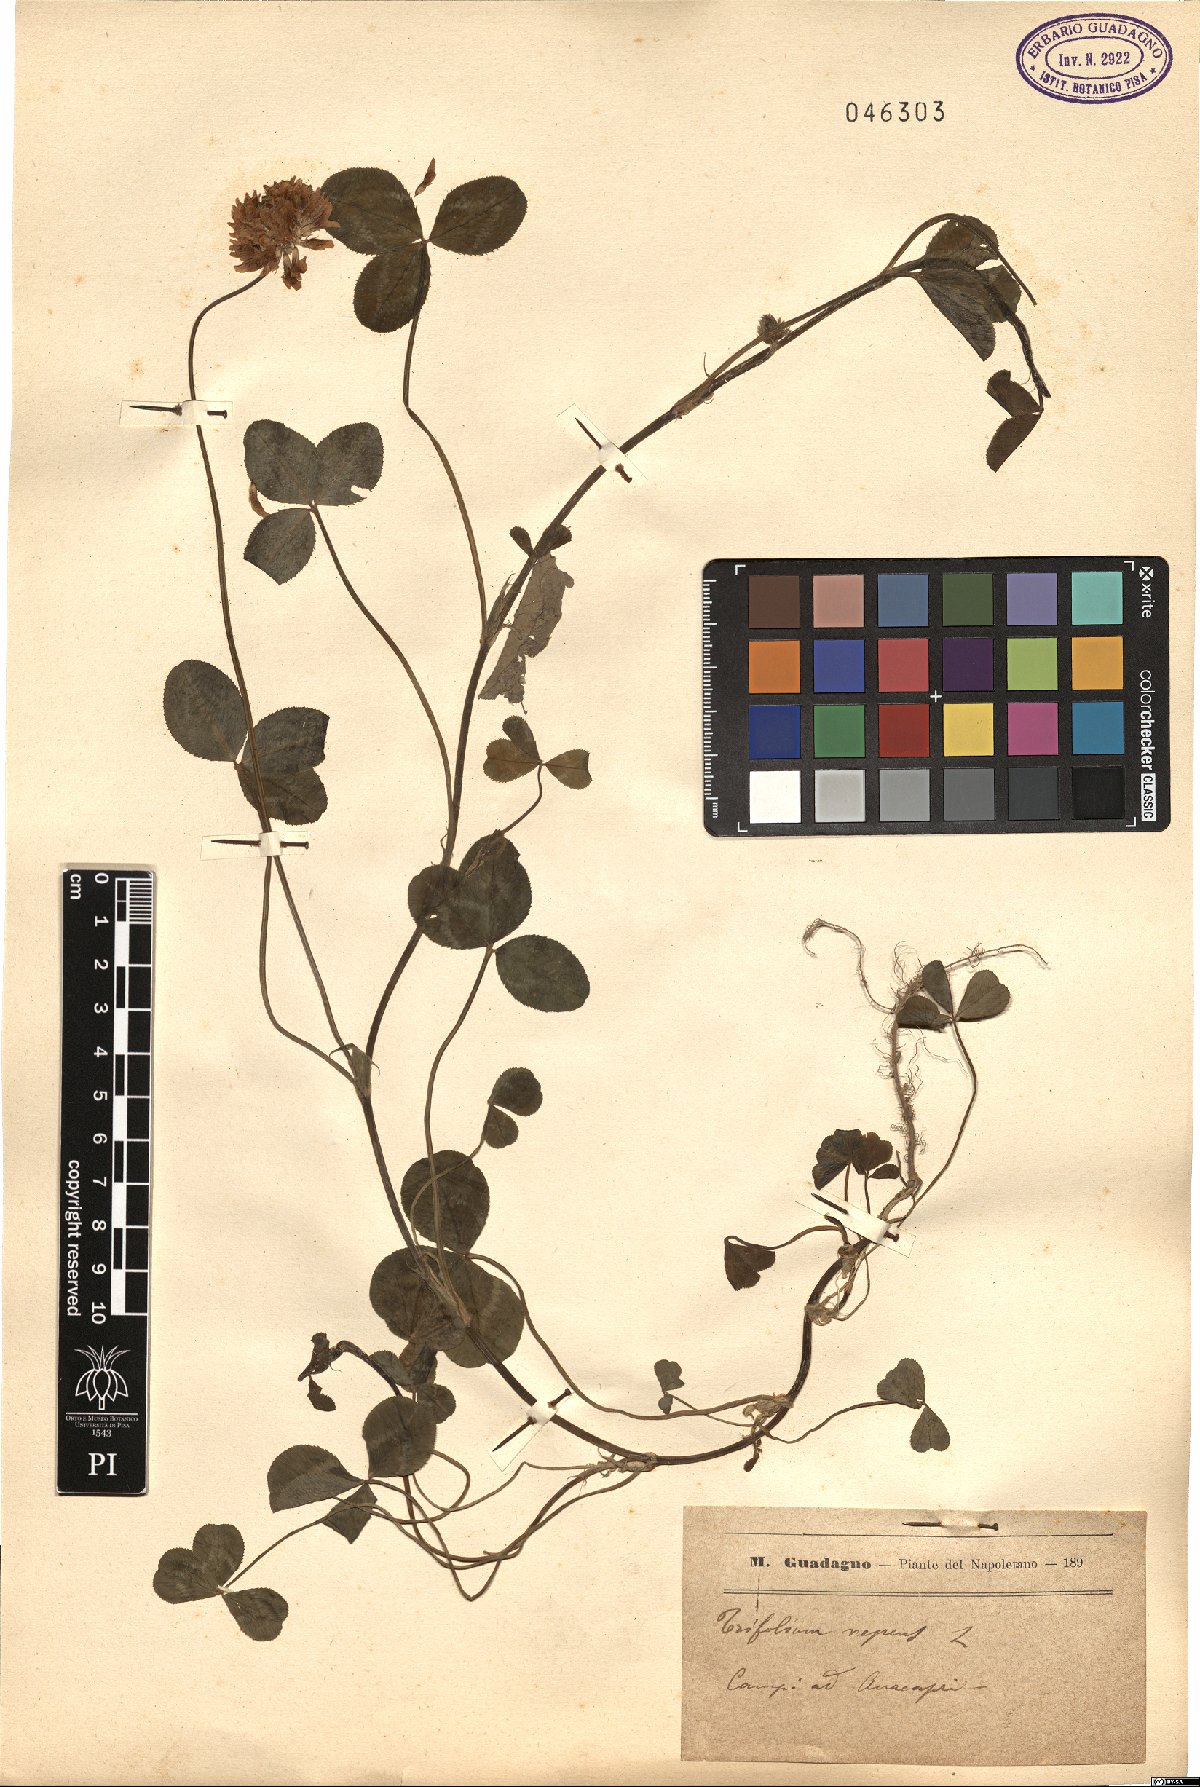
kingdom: Plantae
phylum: Tracheophyta
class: Magnoliopsida
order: Fabales
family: Fabaceae
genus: Trifolium
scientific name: Trifolium repens
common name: White clover
